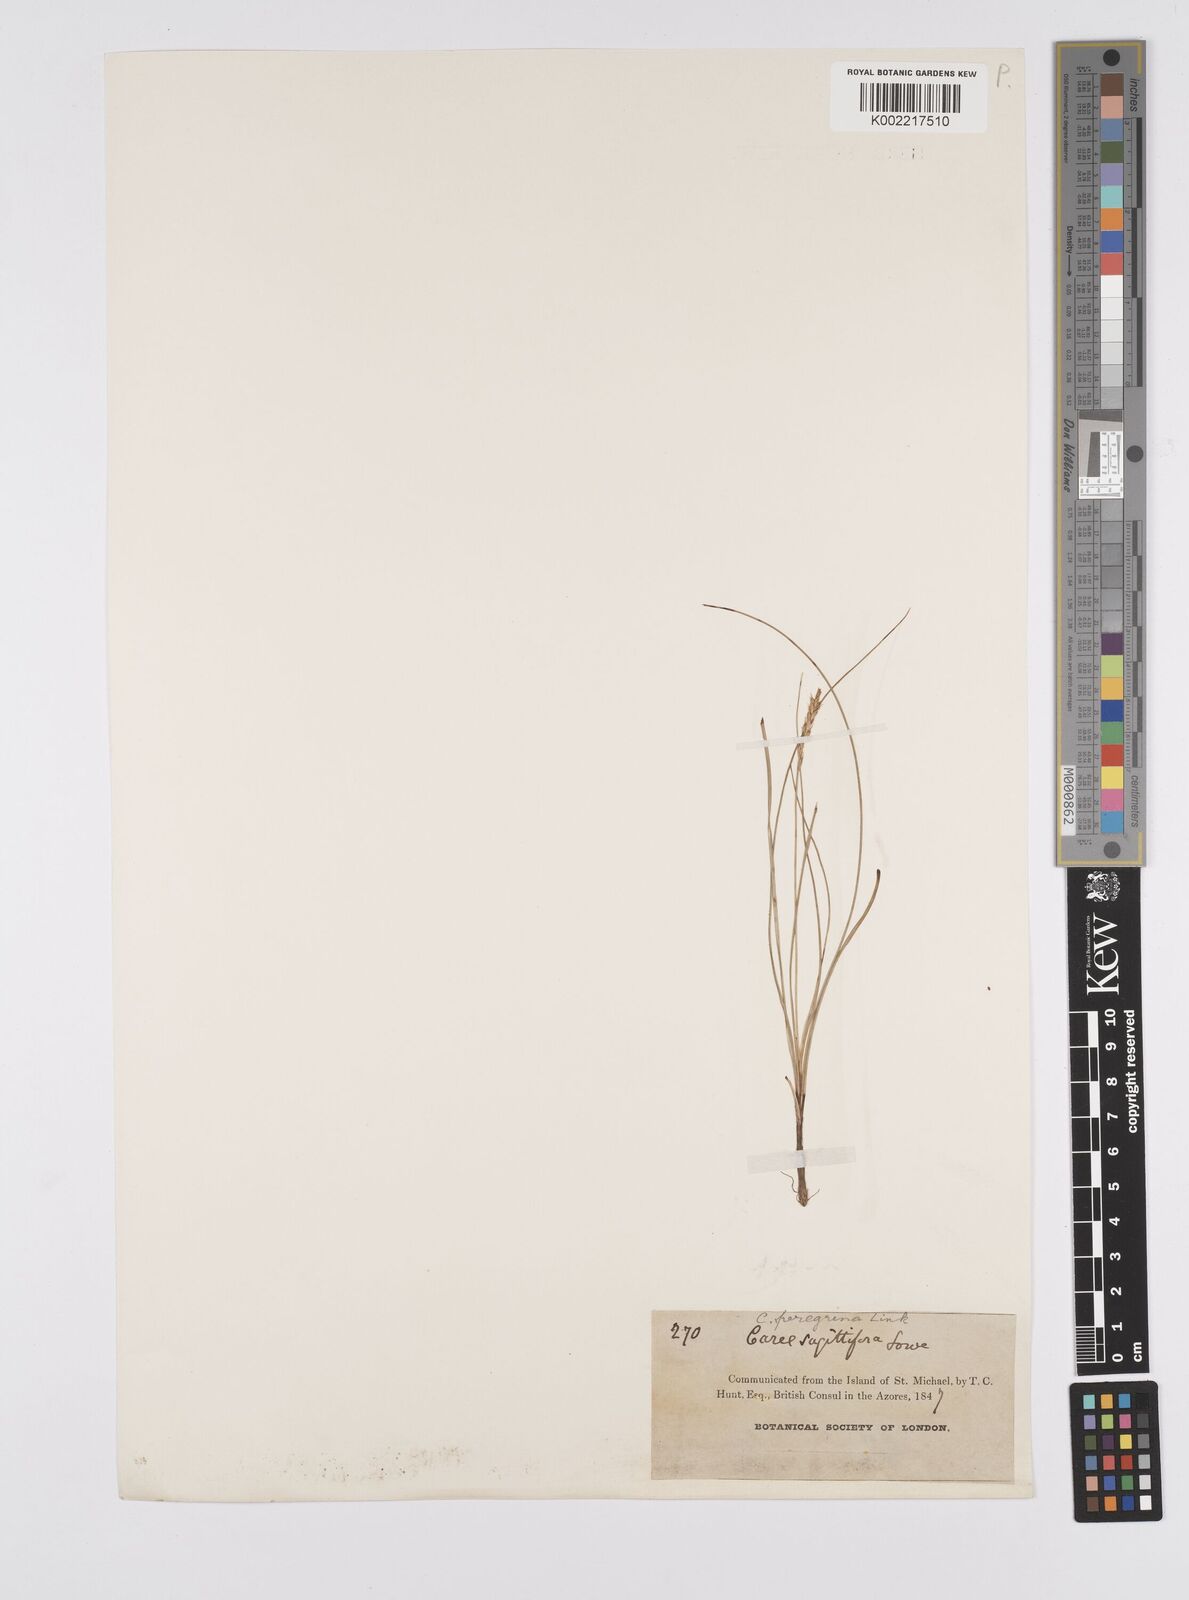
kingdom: Plantae
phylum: Tracheophyta
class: Liliopsida
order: Poales
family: Cyperaceae
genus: Carex
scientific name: Carex peregrina
